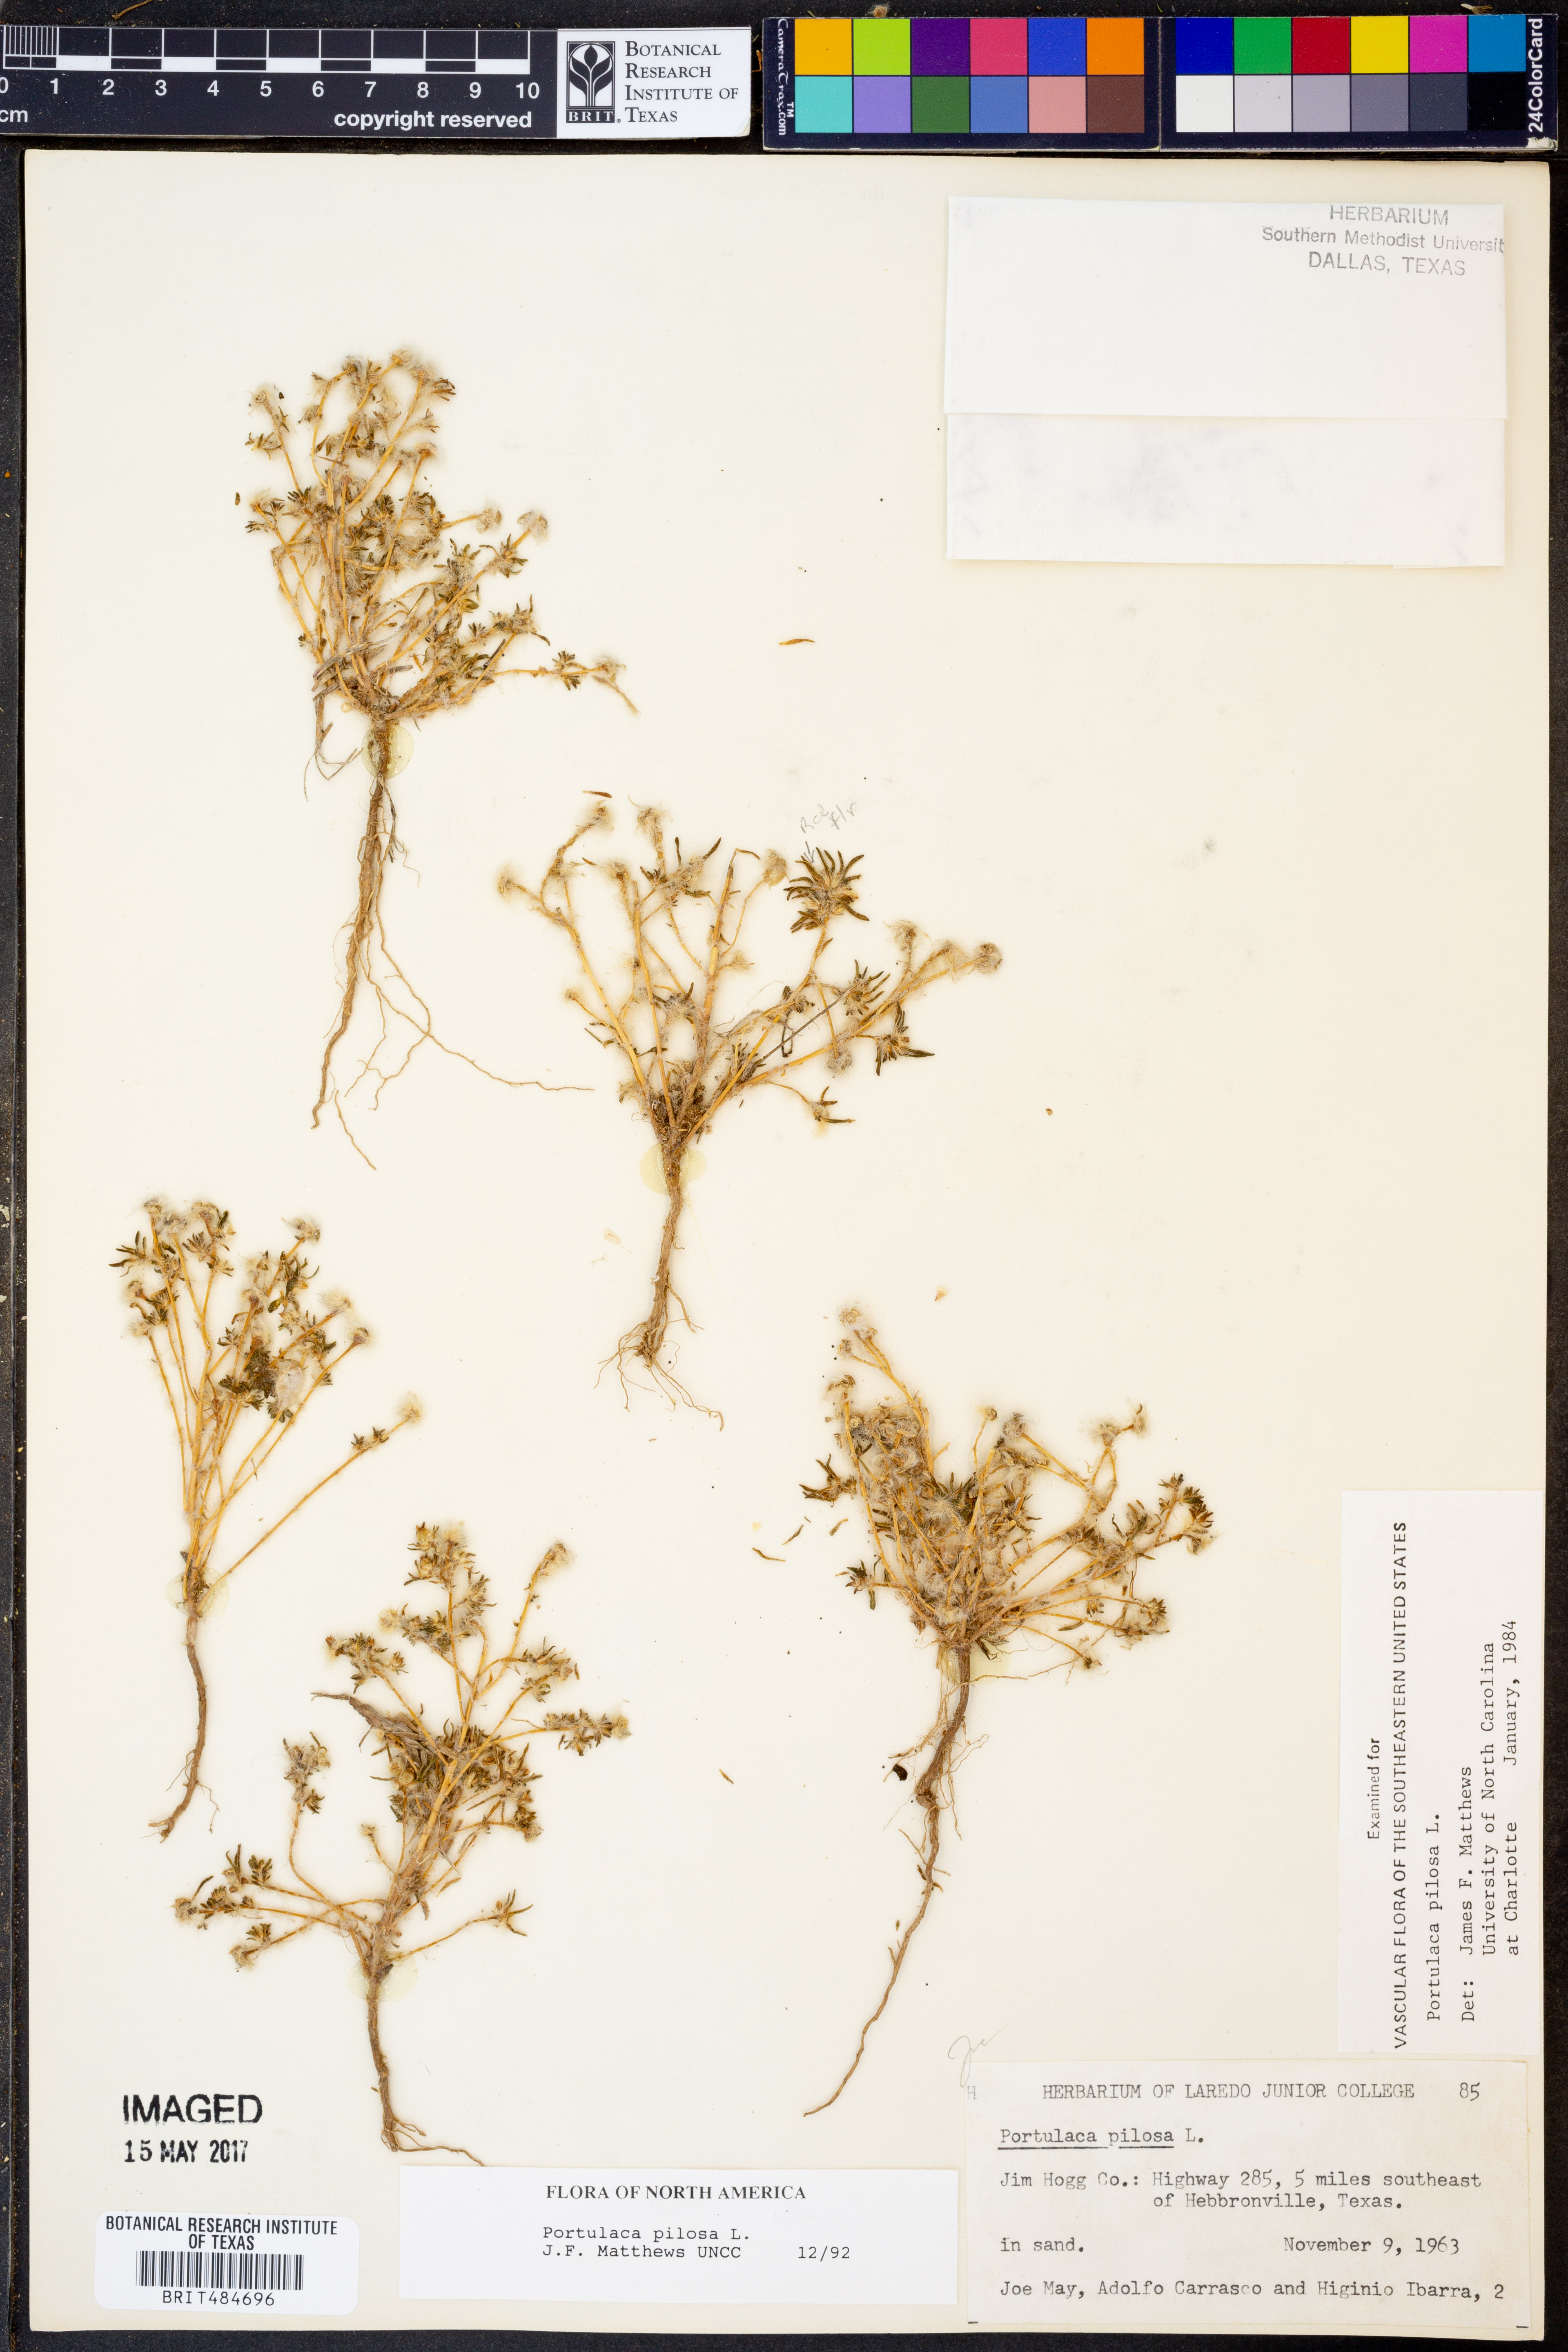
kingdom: Plantae
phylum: Tracheophyta
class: Magnoliopsida
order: Caryophyllales
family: Portulacaceae
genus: Portulaca
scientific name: Portulaca pilosa
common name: Kiss me quick
